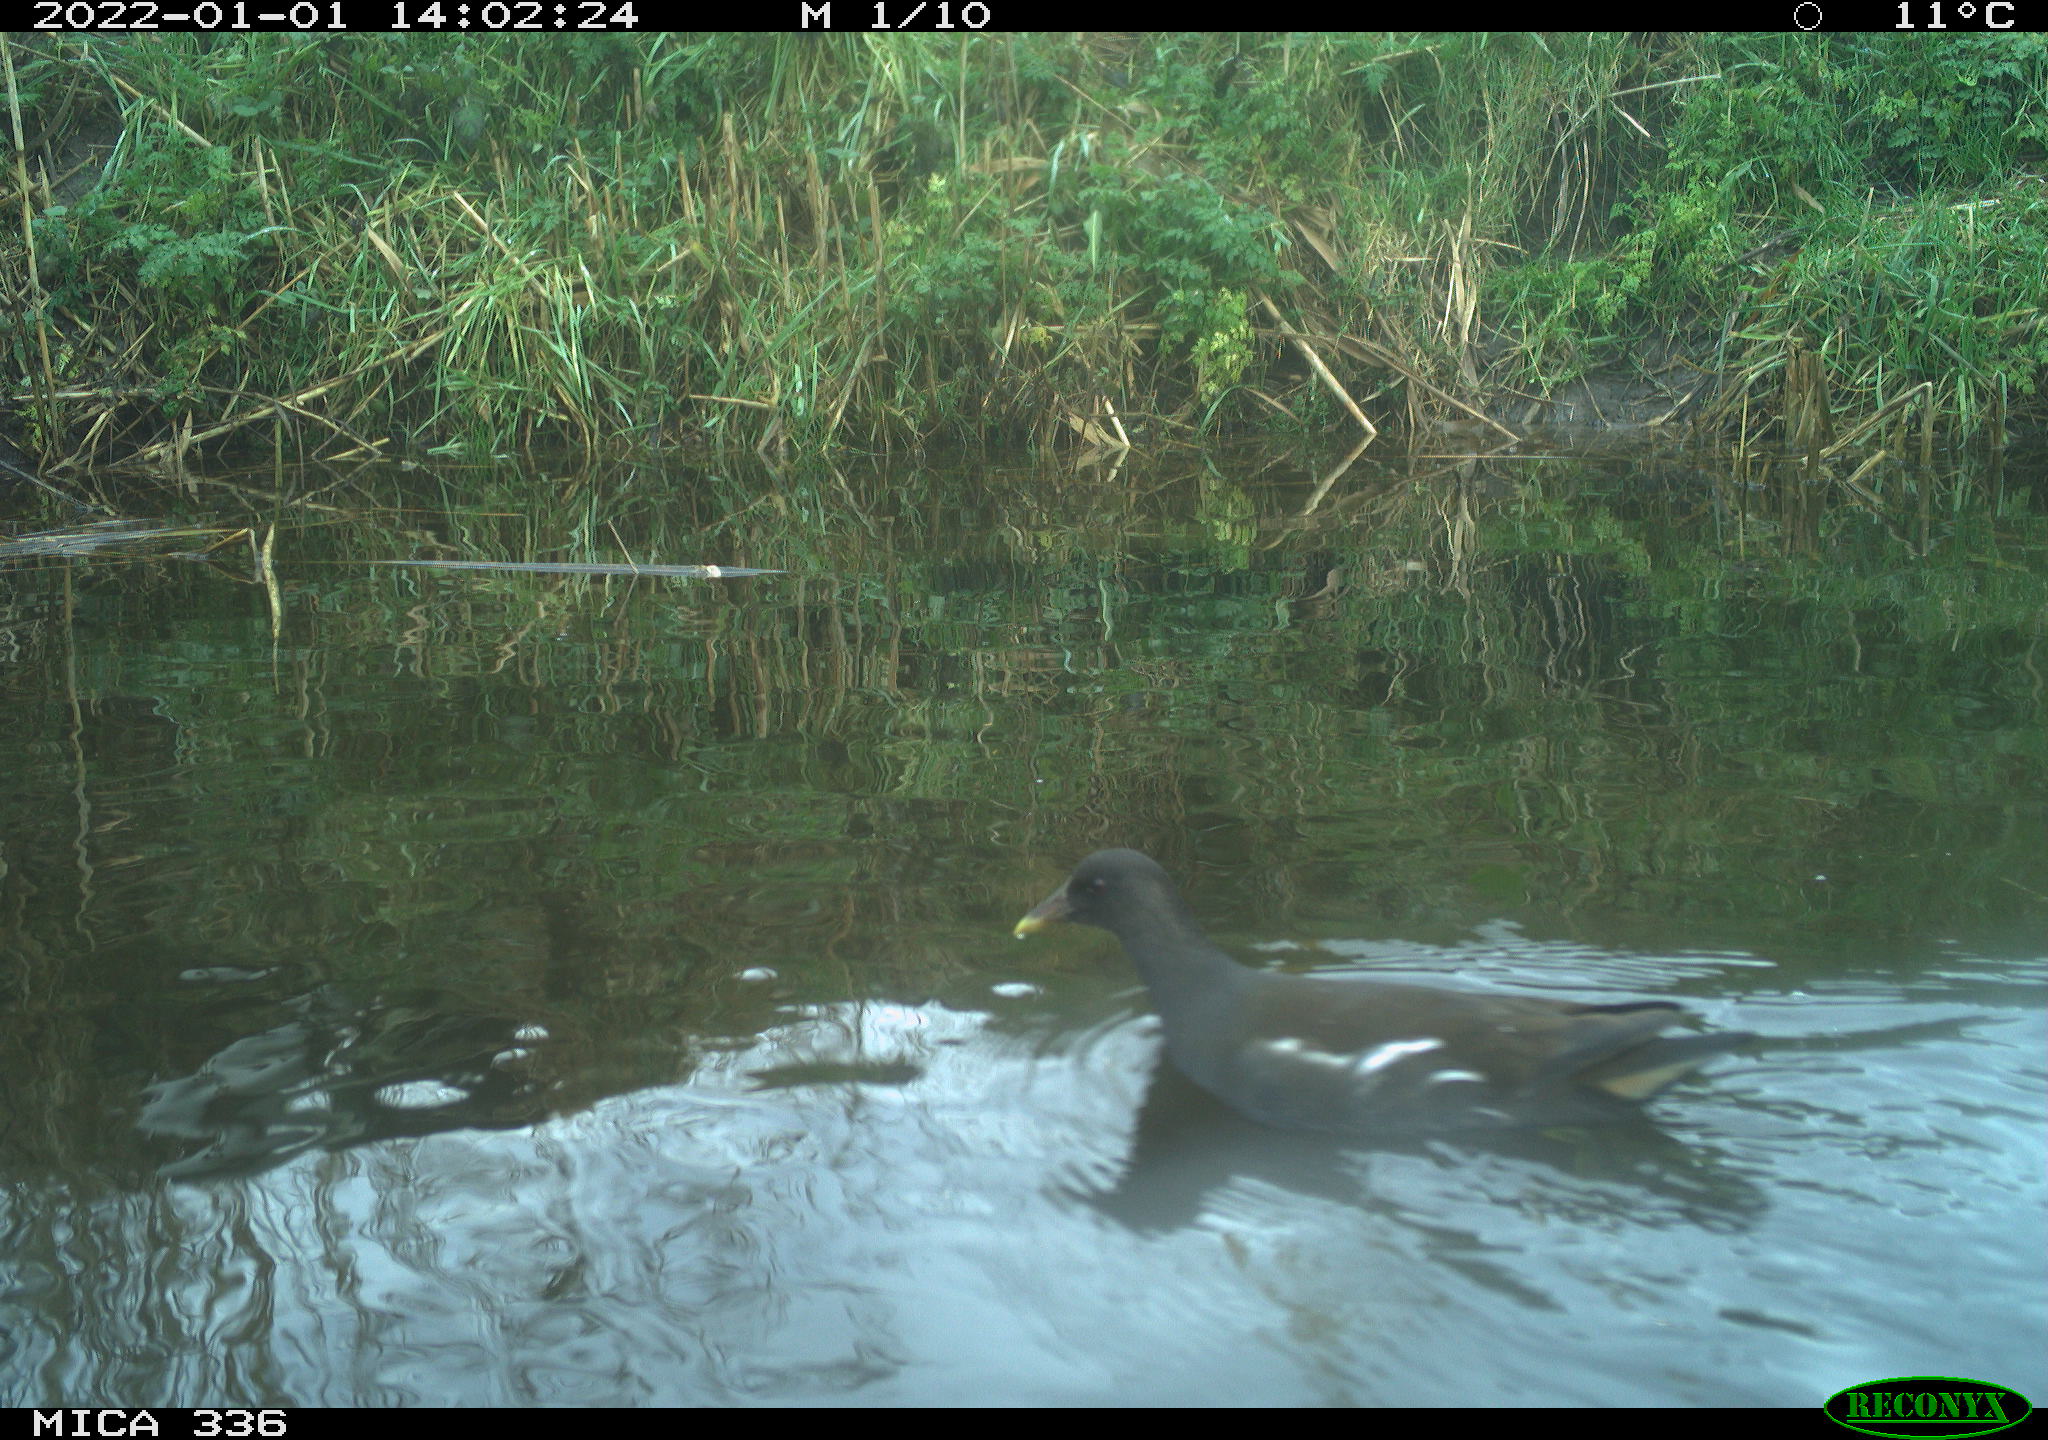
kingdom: Animalia
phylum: Chordata
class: Aves
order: Gruiformes
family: Rallidae
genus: Gallinula
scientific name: Gallinula chloropus
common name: Common moorhen
